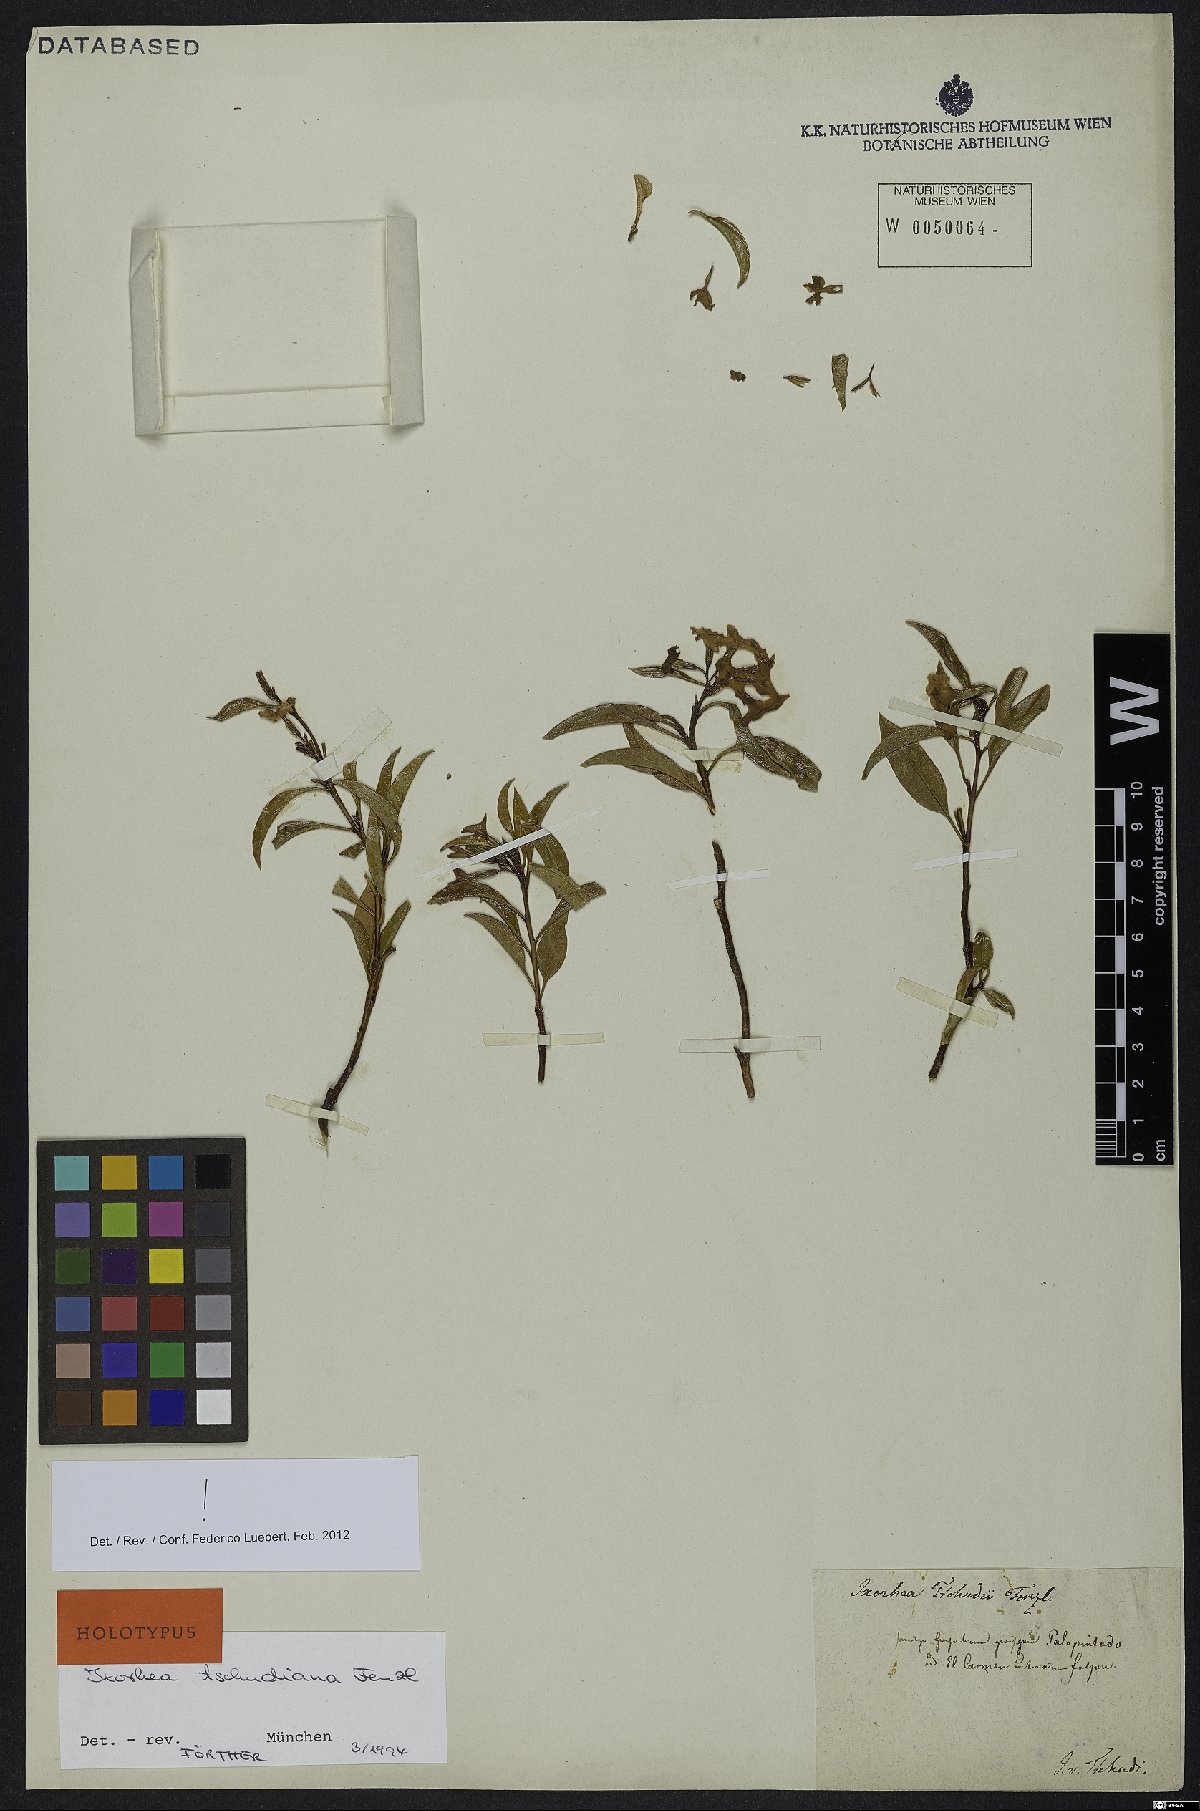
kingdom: Plantae
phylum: Tracheophyta
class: Magnoliopsida
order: Boraginales
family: Heliotropiaceae
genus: Ixorhea
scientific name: Ixorhea tschudiana
